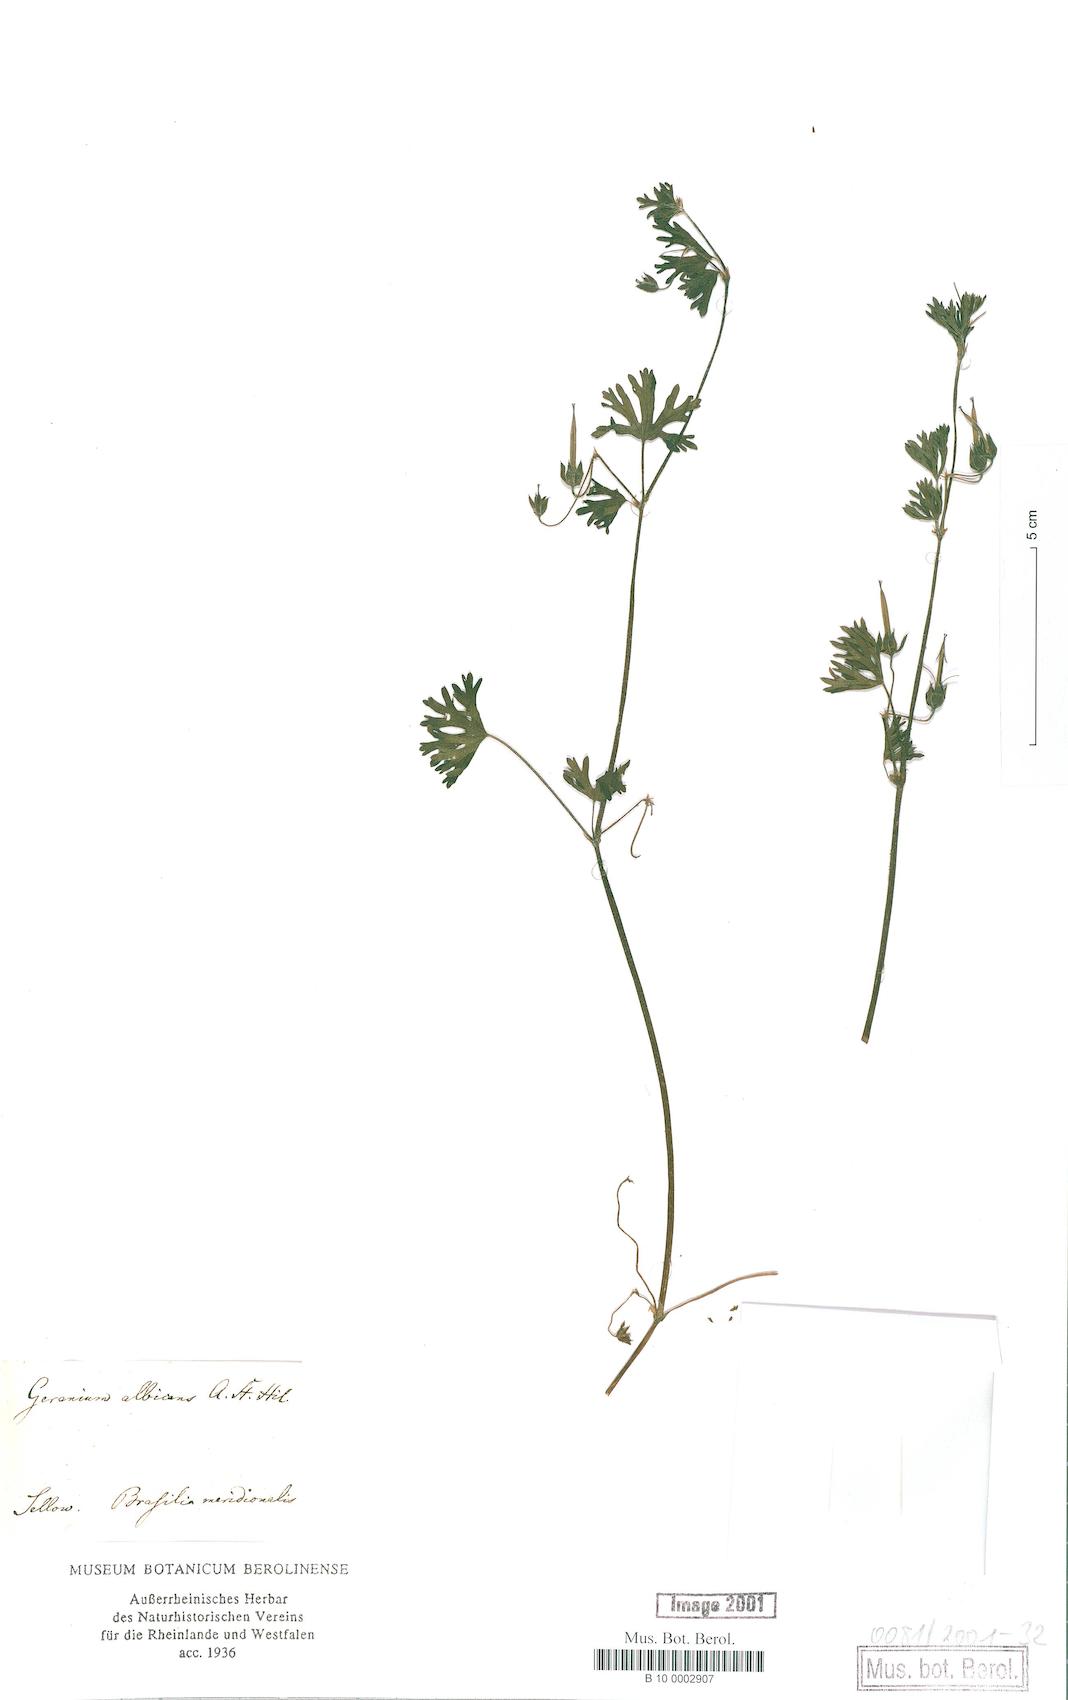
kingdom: Plantae
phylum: Tracheophyta
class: Magnoliopsida
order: Geraniales
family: Geraniaceae
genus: Geranium
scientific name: Geranium albicans
